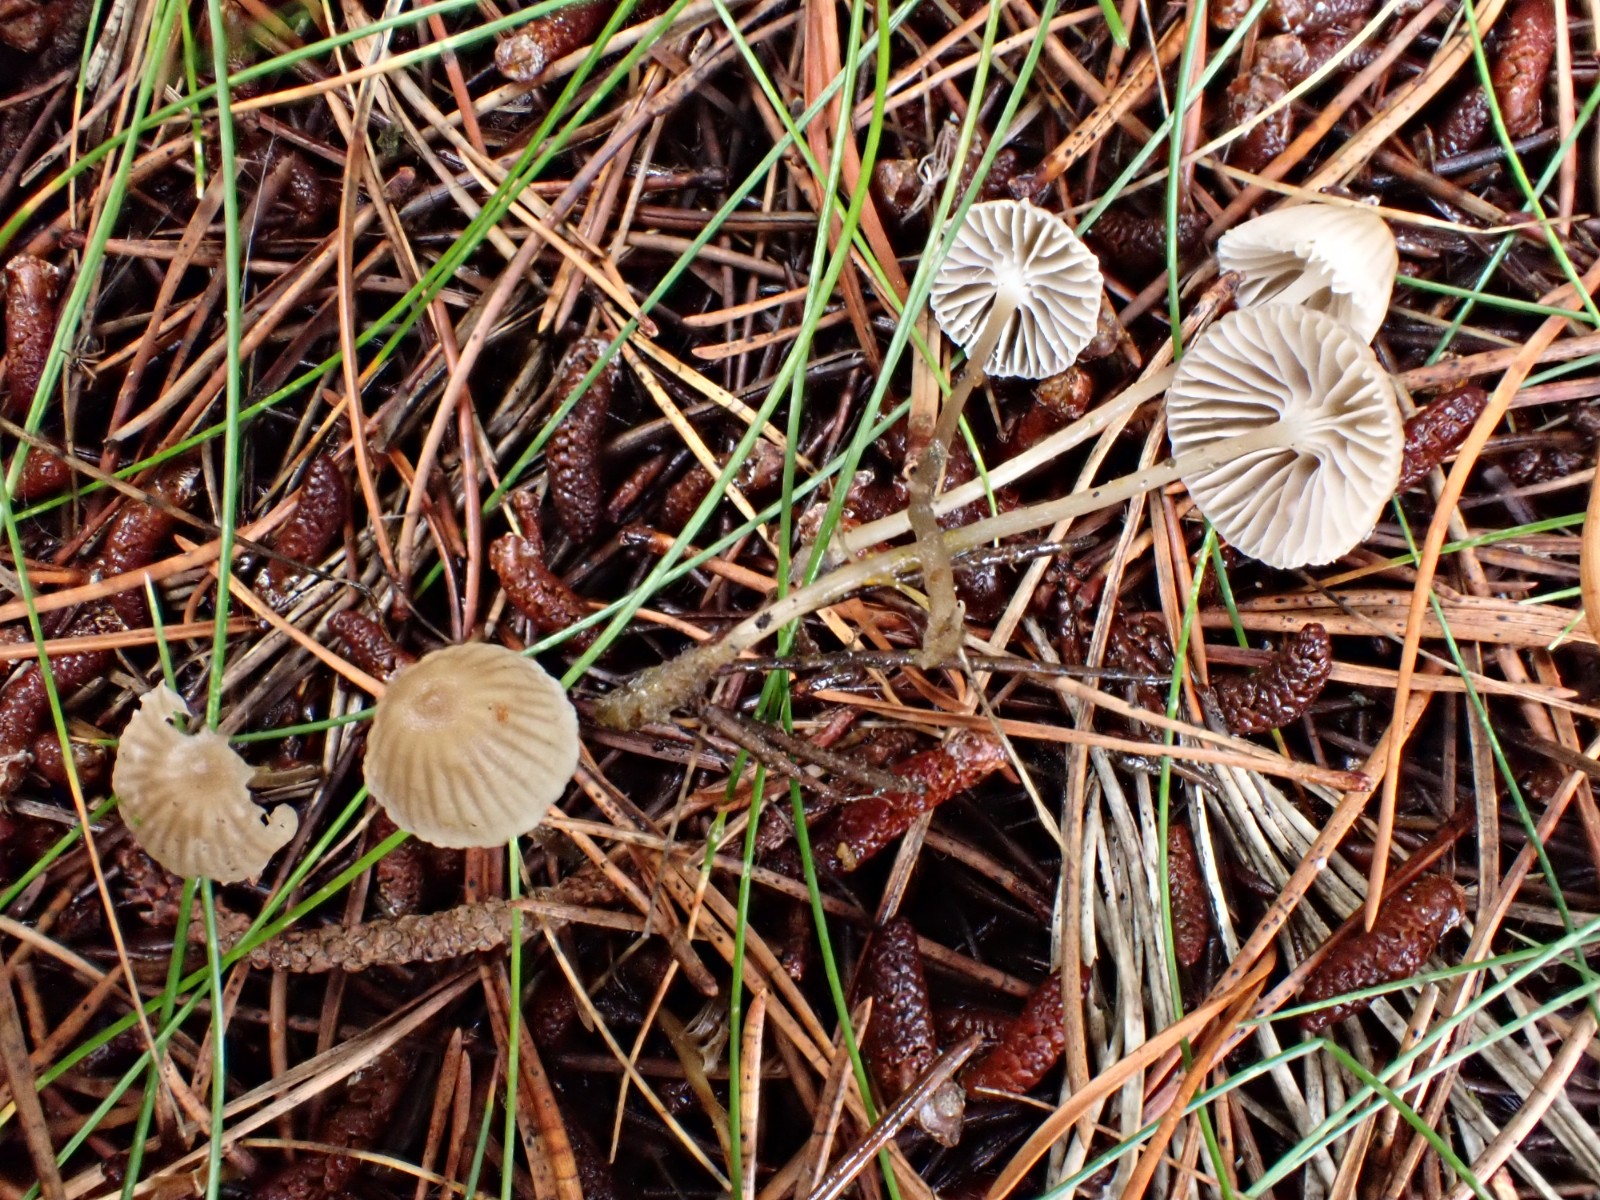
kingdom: Fungi
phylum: Basidiomycota
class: Agaricomycetes
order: Agaricales
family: Mycenaceae
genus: Mycena
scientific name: Mycena vulgaris
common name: klæbrig huesvamp
